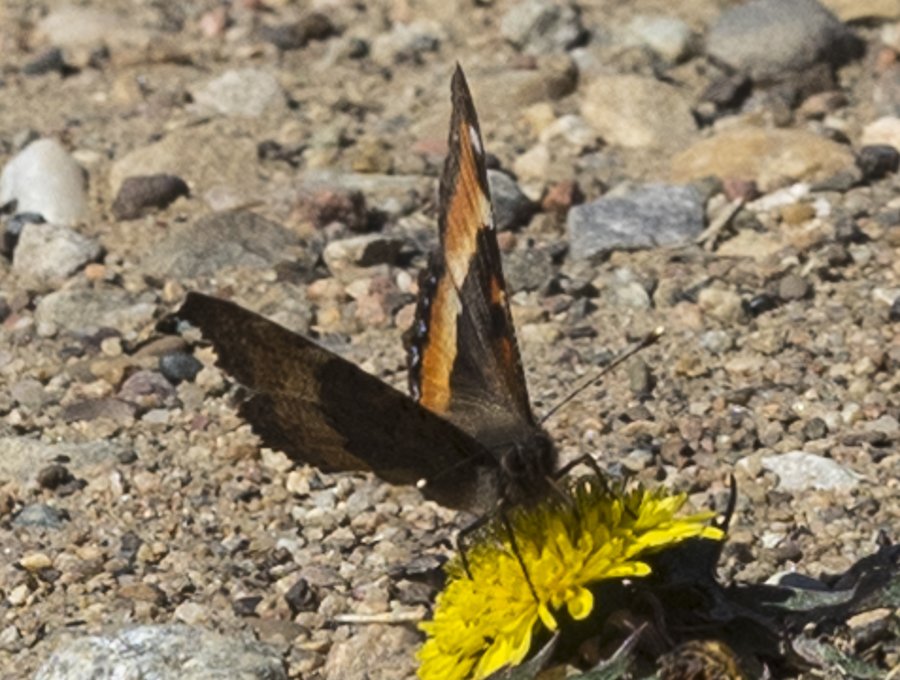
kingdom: Animalia
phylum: Arthropoda
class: Insecta
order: Lepidoptera
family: Nymphalidae
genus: Aglais
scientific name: Aglais milberti
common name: Milbert's Tortoiseshell
